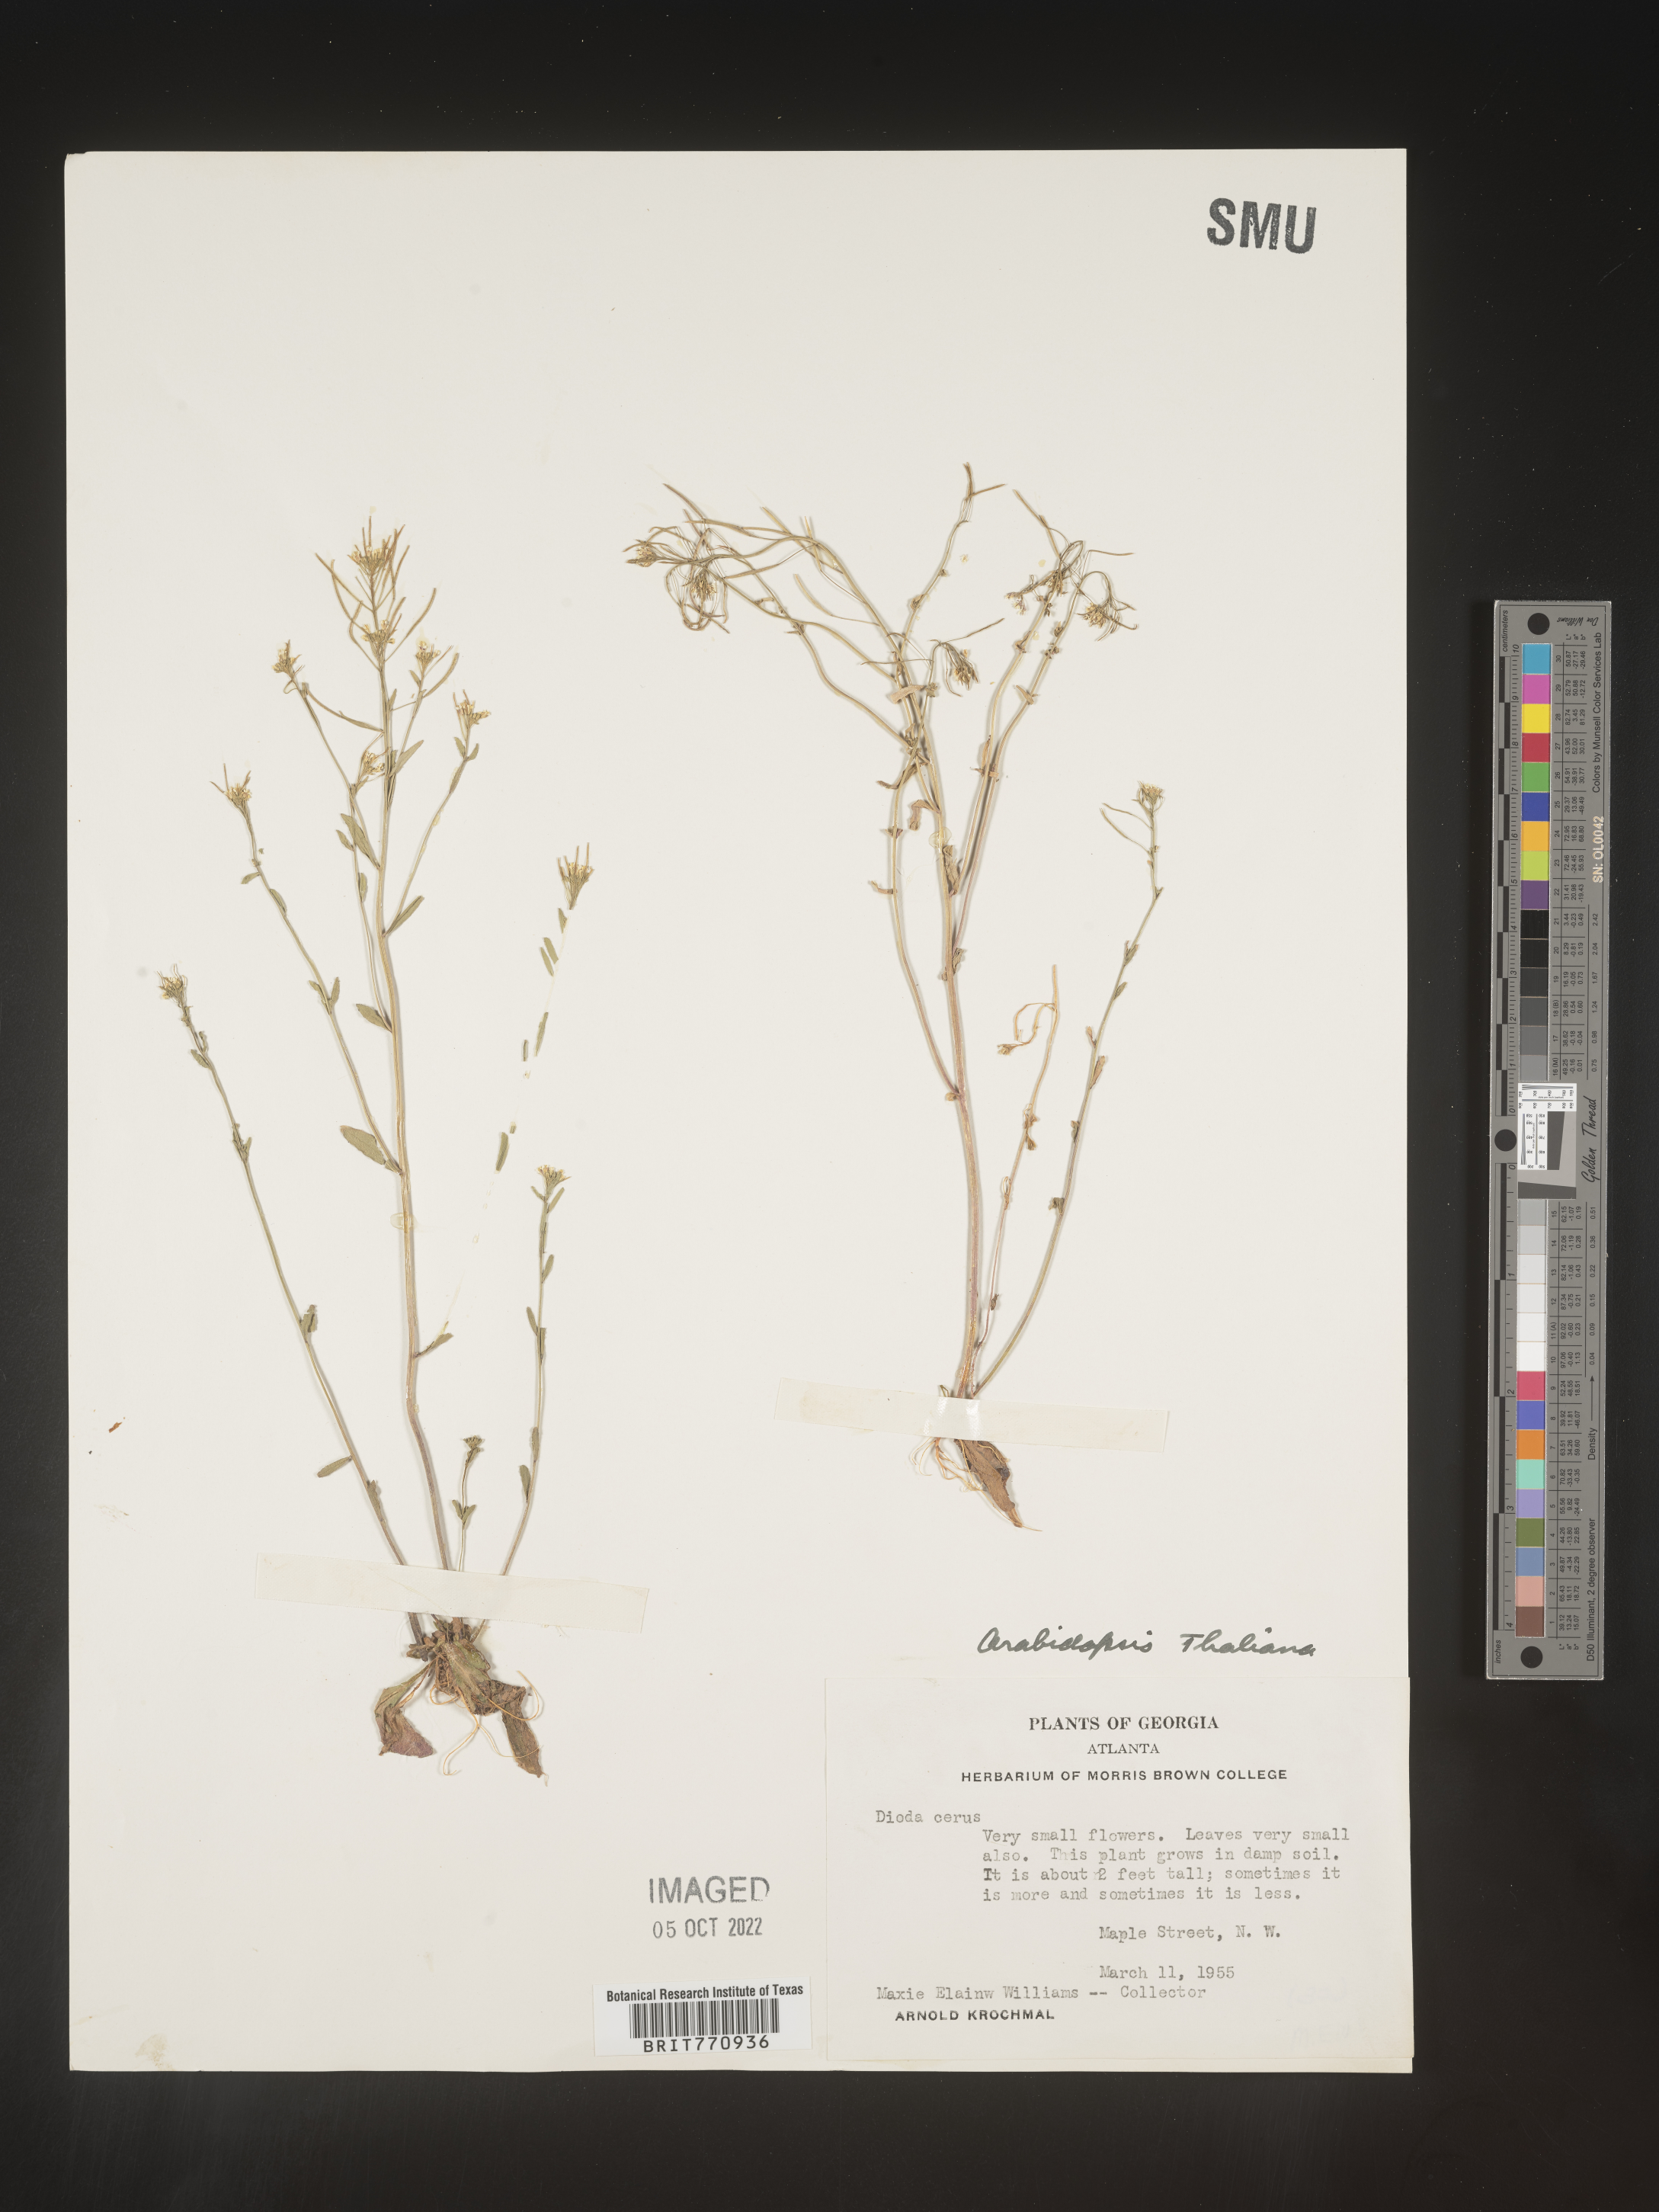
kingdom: Plantae
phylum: Tracheophyta
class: Magnoliopsida
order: Brassicales
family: Brassicaceae
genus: Arabidopsis
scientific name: Arabidopsis thaliana
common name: Thale cress
